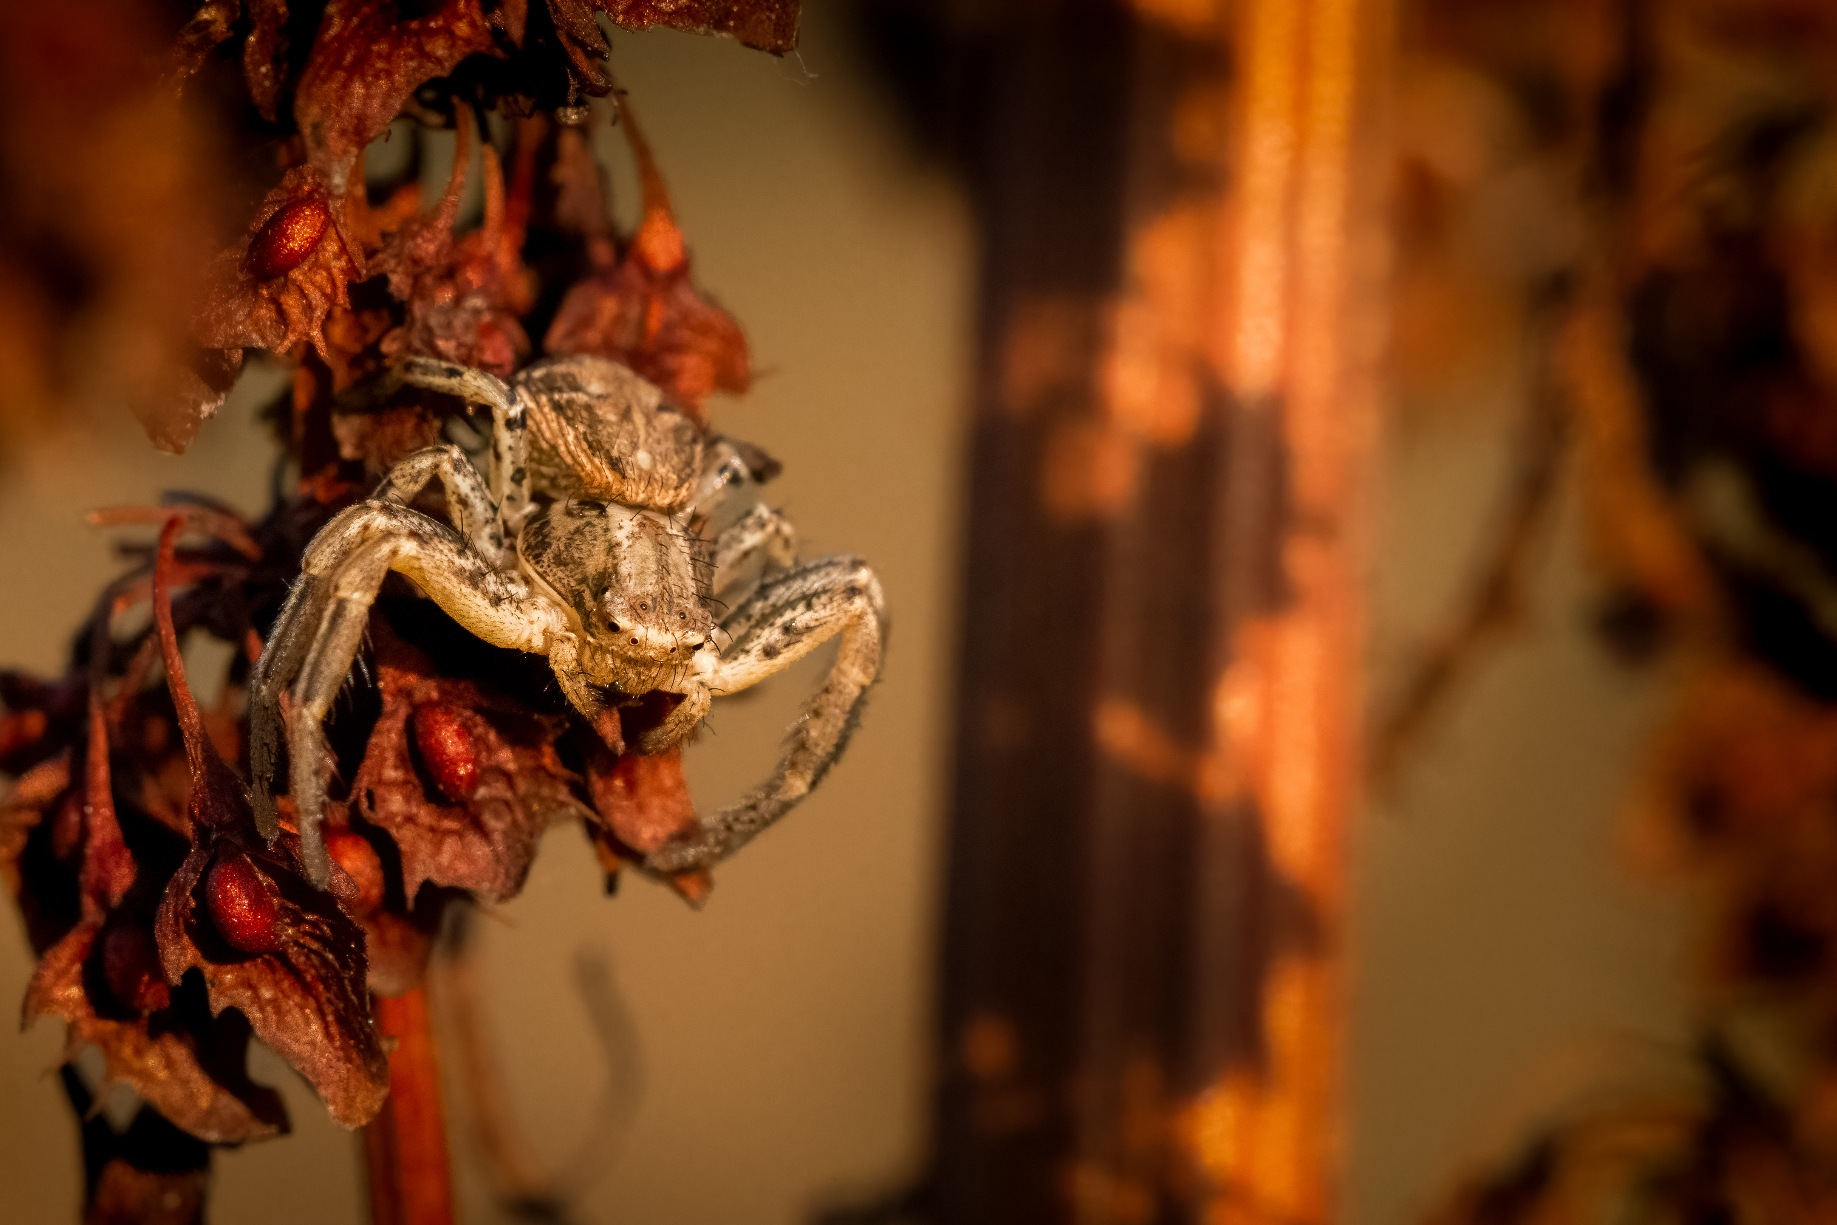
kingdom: Animalia
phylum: Arthropoda
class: Arachnida
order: Araneae
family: Thomisidae
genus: Xysticus
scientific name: Xysticus
